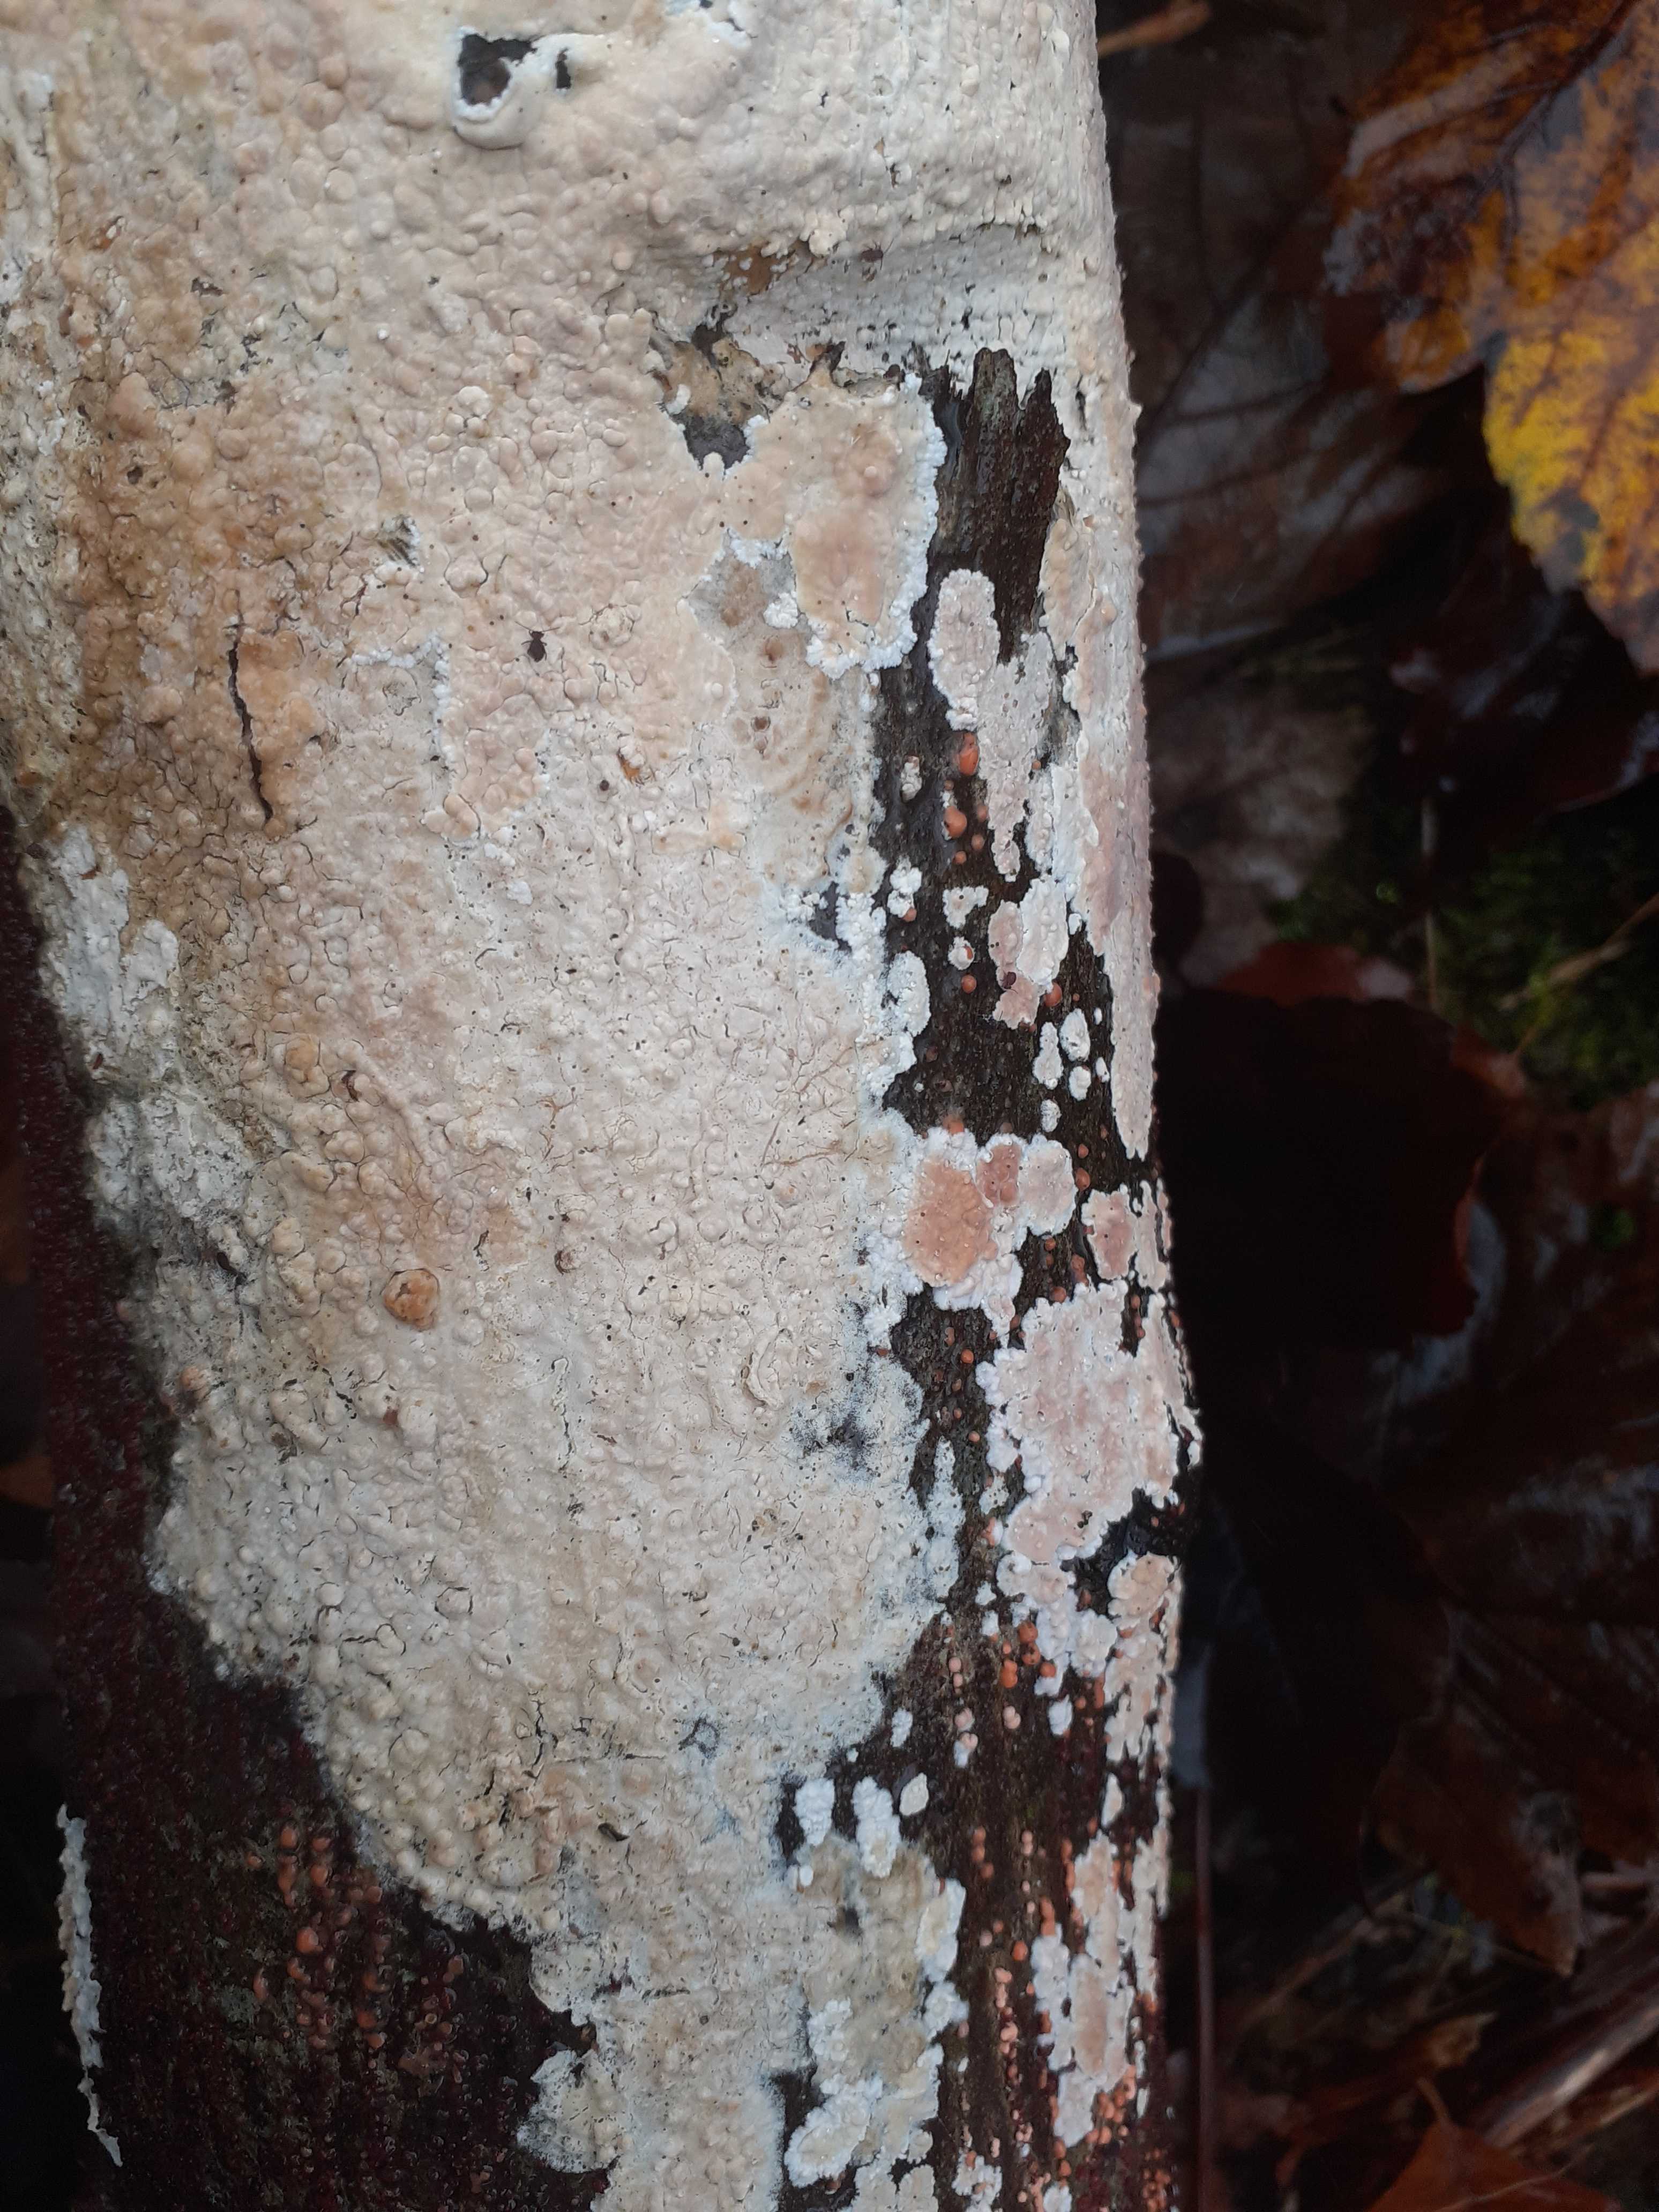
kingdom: Fungi
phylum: Basidiomycota
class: Agaricomycetes
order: Agaricales
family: Physalacriaceae
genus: Cylindrobasidium
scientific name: Cylindrobasidium evolvens
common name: sprækkehinde
